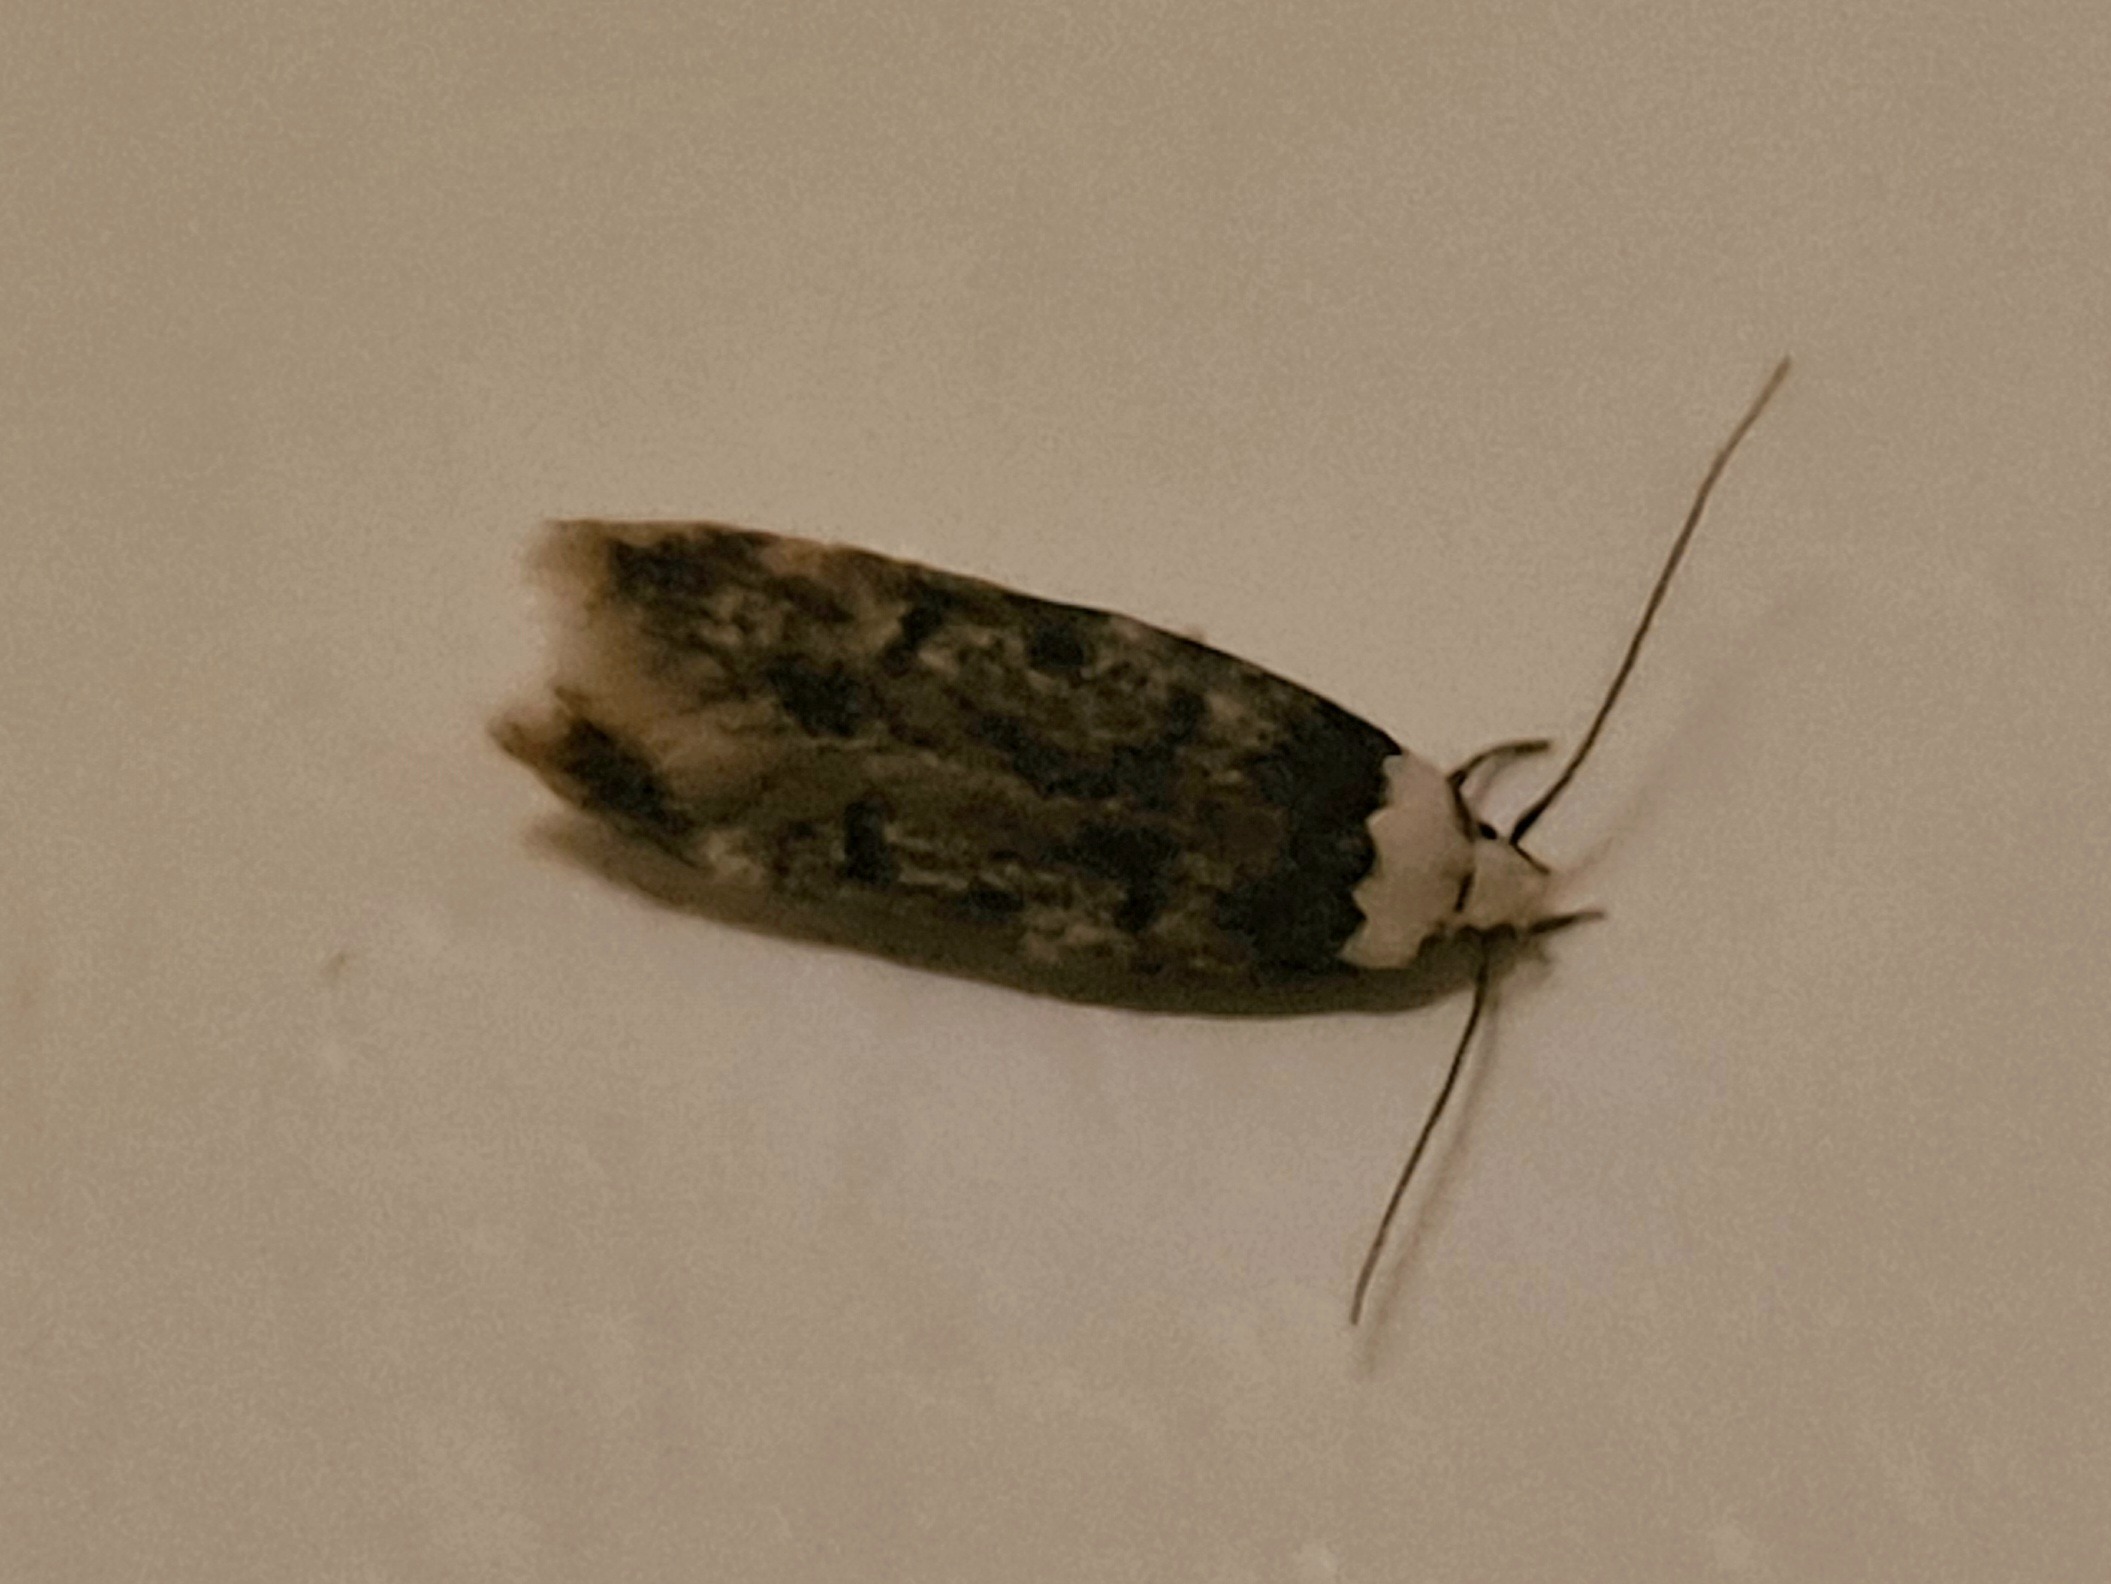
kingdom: Animalia
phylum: Arthropoda
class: Insecta
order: Lepidoptera
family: Oecophoridae
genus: Endrosis
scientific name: Endrosis sarcitrella
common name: Klistermøl
